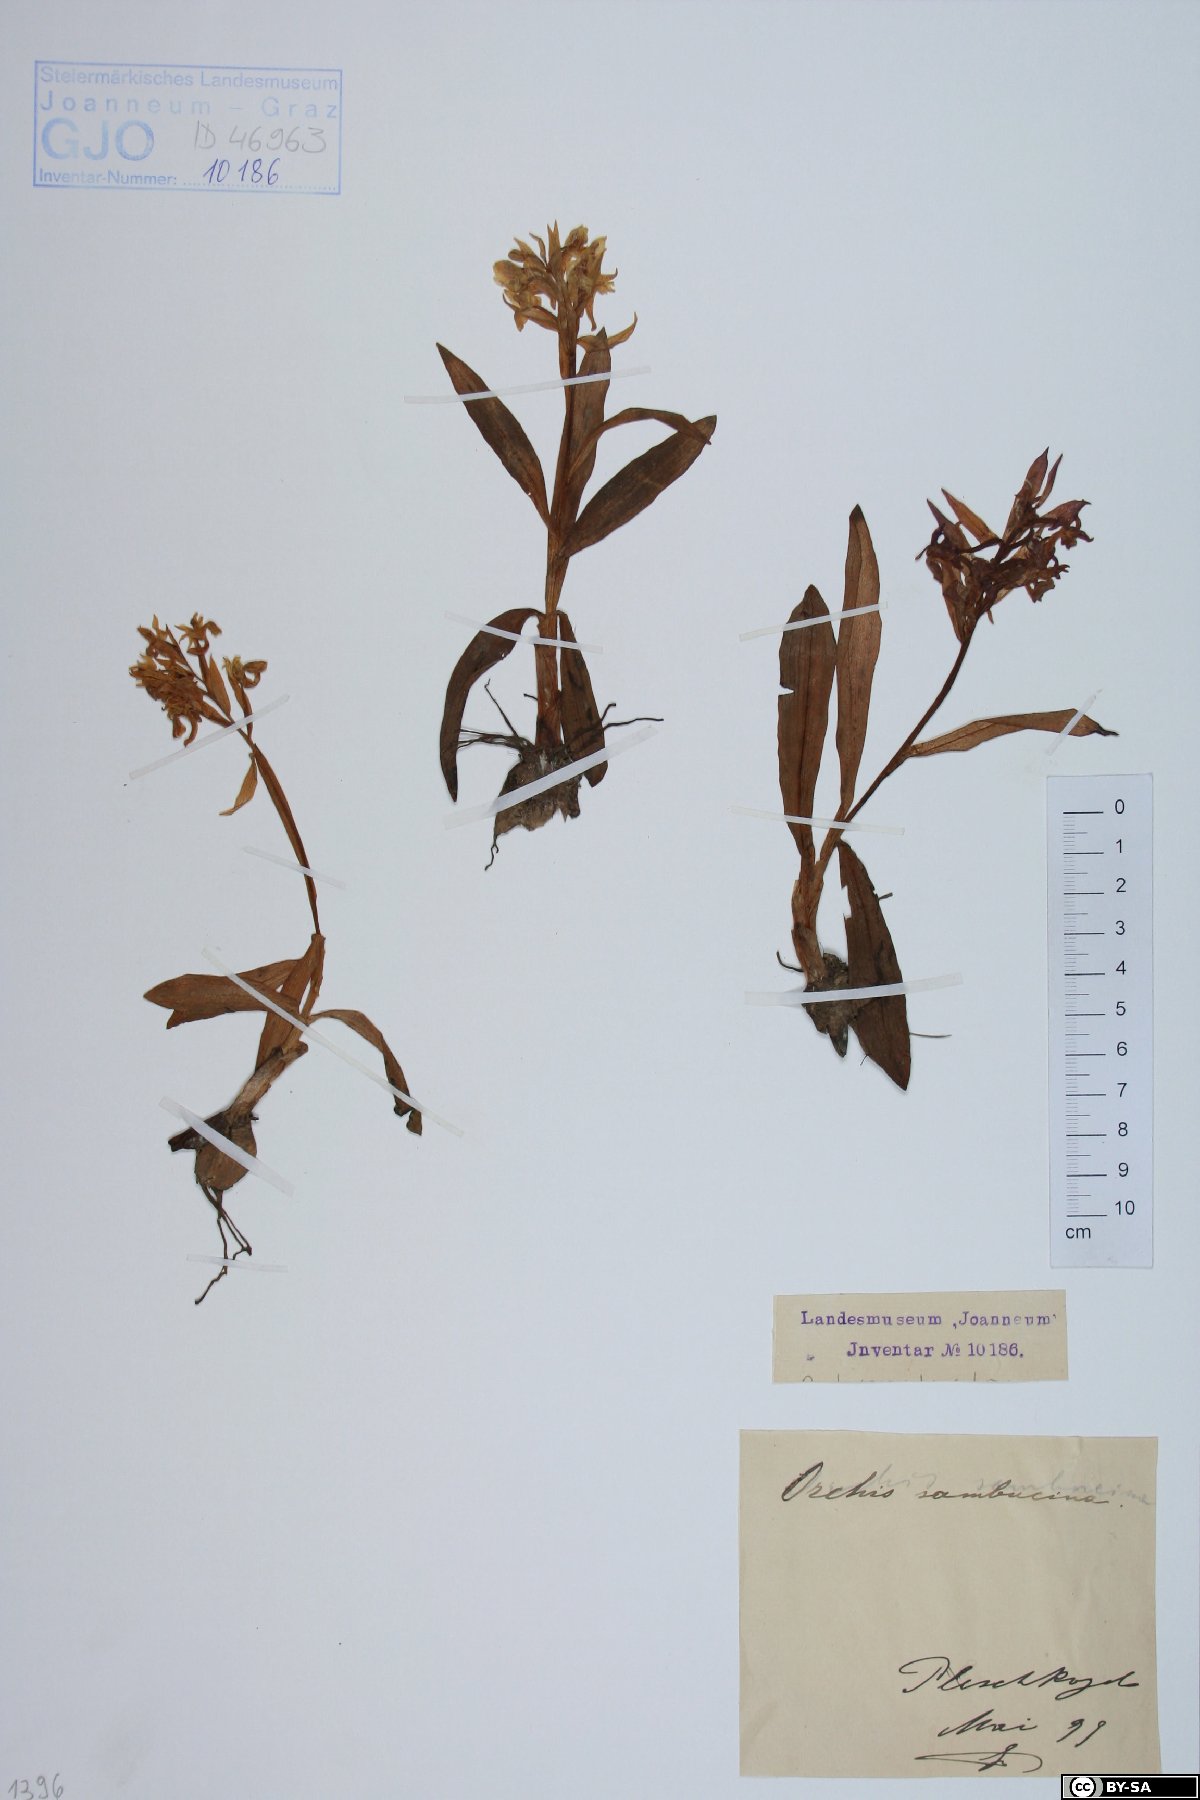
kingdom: Plantae
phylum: Tracheophyta
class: Liliopsida
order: Asparagales
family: Orchidaceae
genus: Dactylorhiza
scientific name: Dactylorhiza sambucina
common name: Elder-flowered orchid
